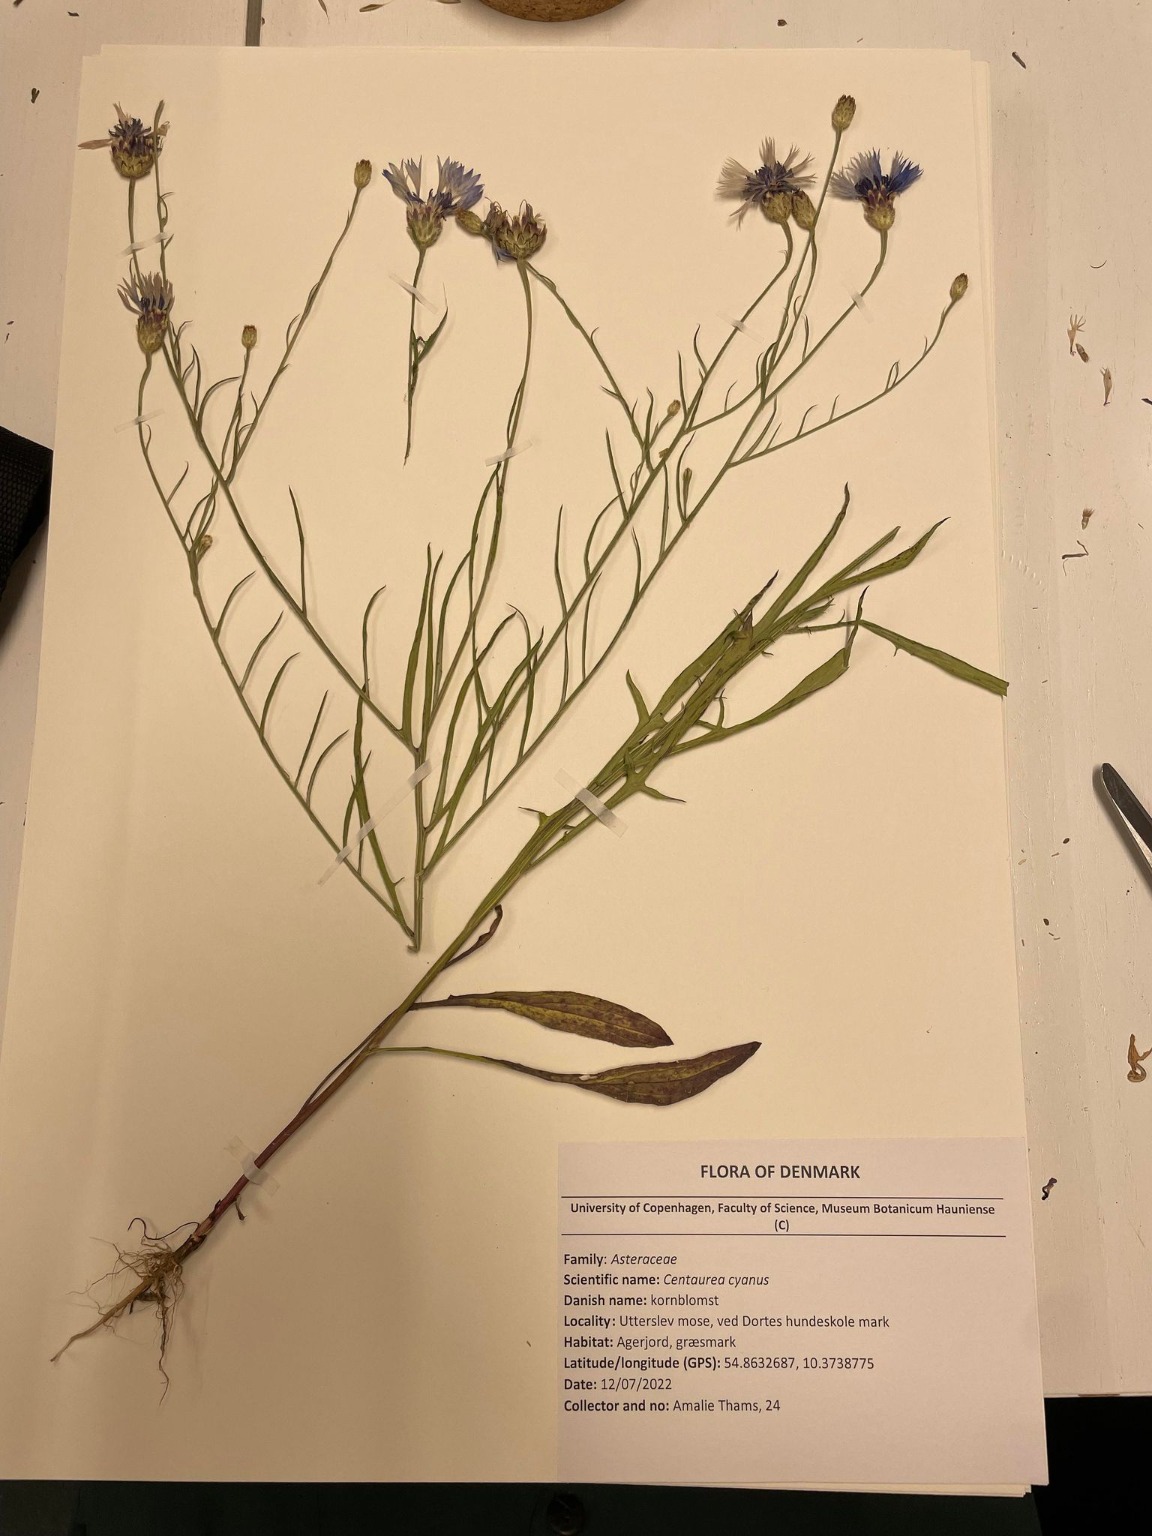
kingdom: Plantae
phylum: Tracheophyta
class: Magnoliopsida
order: Asterales
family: Asteraceae
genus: Centaurea
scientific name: Centaurea cyanus
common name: Kornblomst
